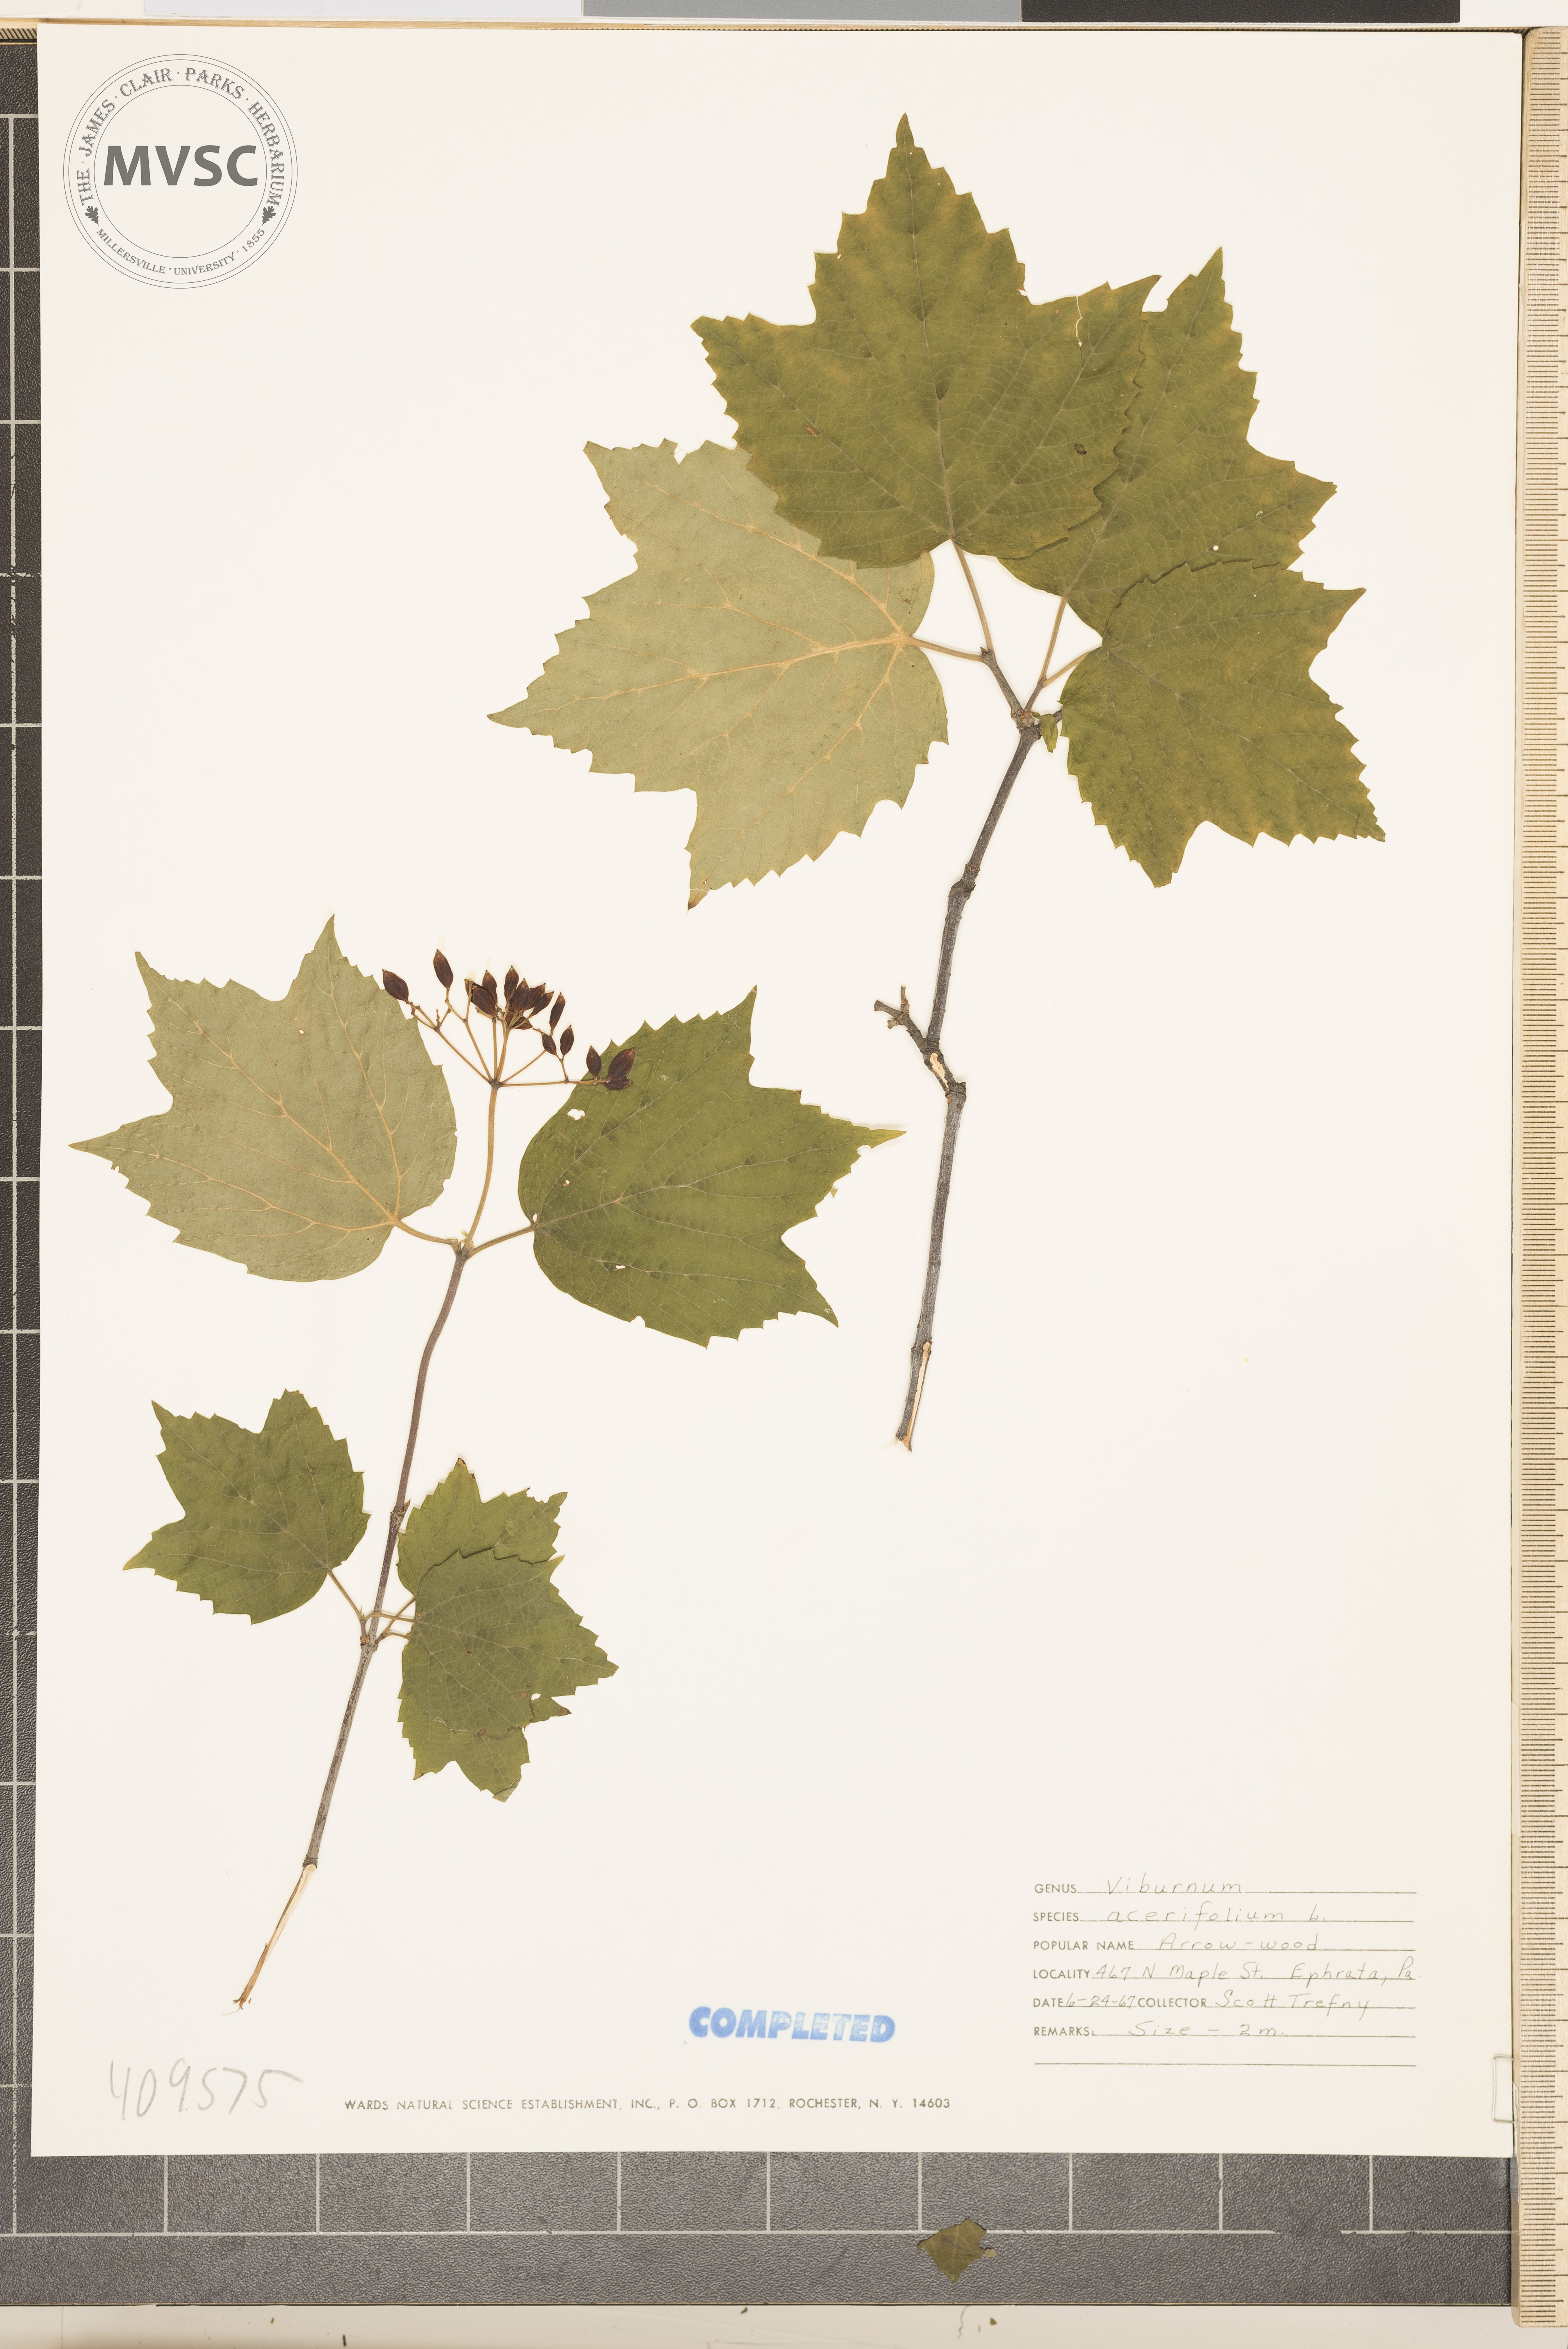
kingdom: Plantae
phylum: Tracheophyta
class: Magnoliopsida
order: Dipsacales
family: Viburnaceae
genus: Viburnum
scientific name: Viburnum acerifolium
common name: mapleleaf viburnum
